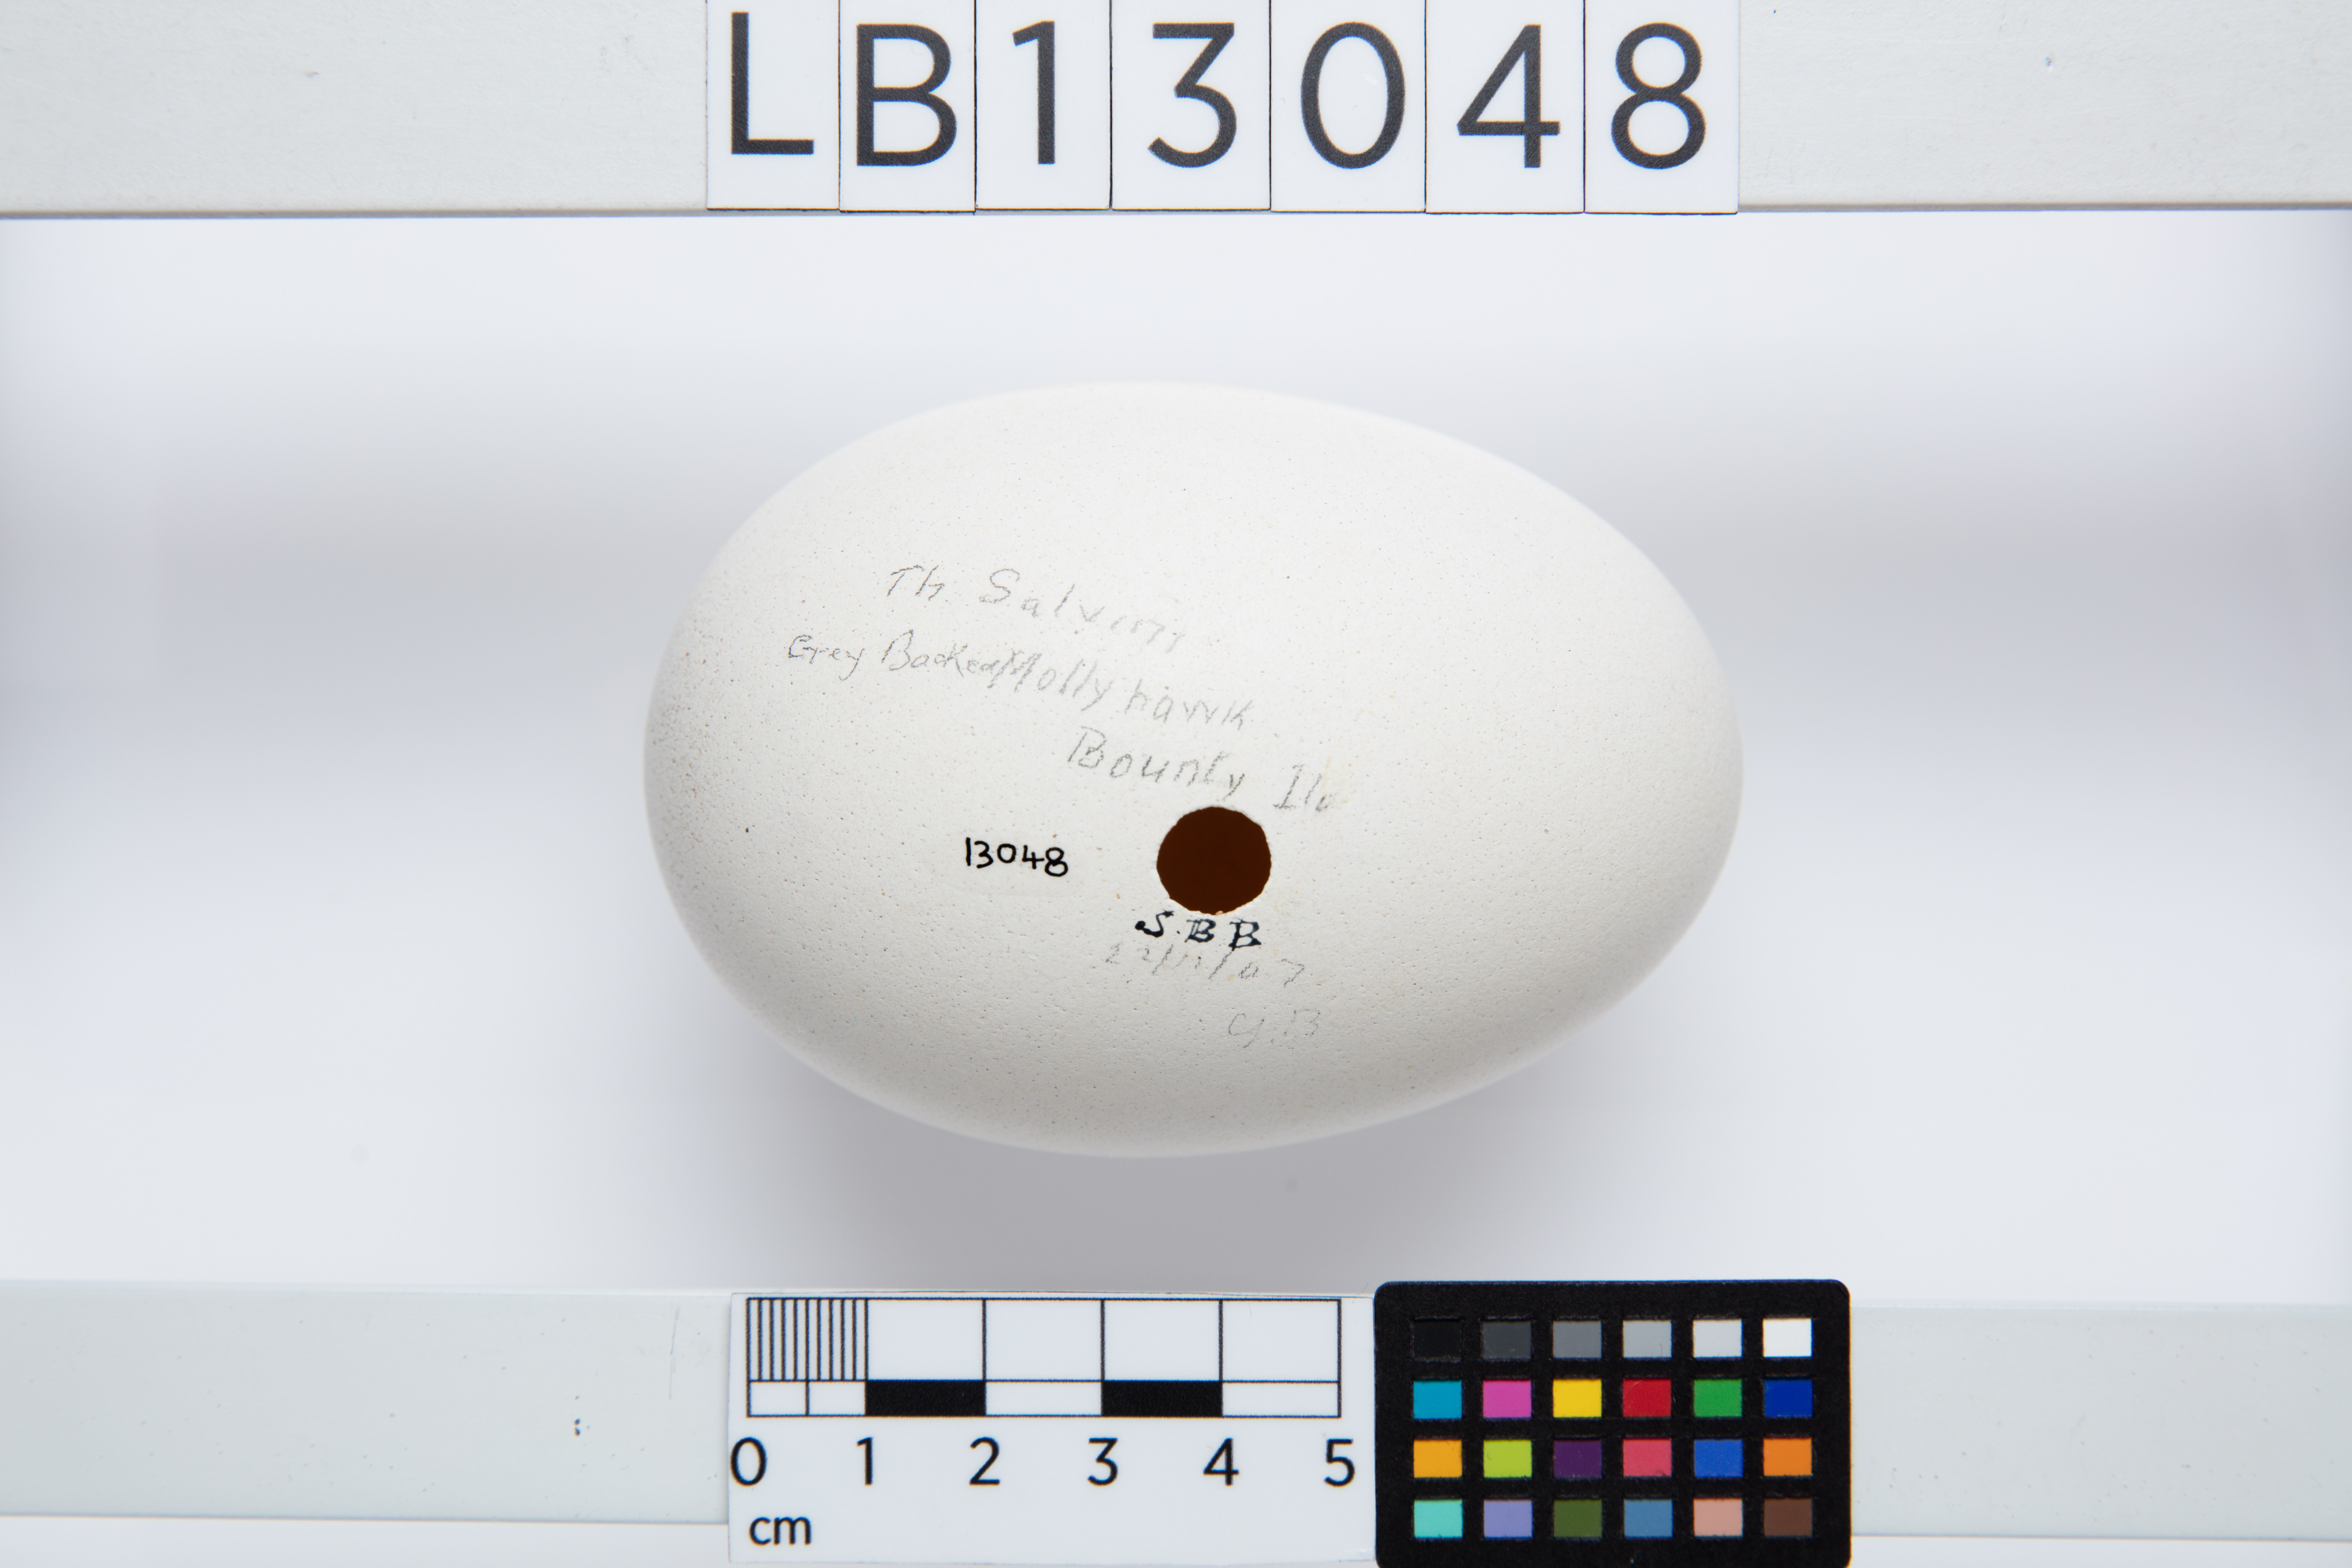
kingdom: Animalia
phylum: Chordata
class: Aves
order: Procellariiformes
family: Diomedeidae
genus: Thalassarche
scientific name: Thalassarche salvini
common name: Salvin's albatross
